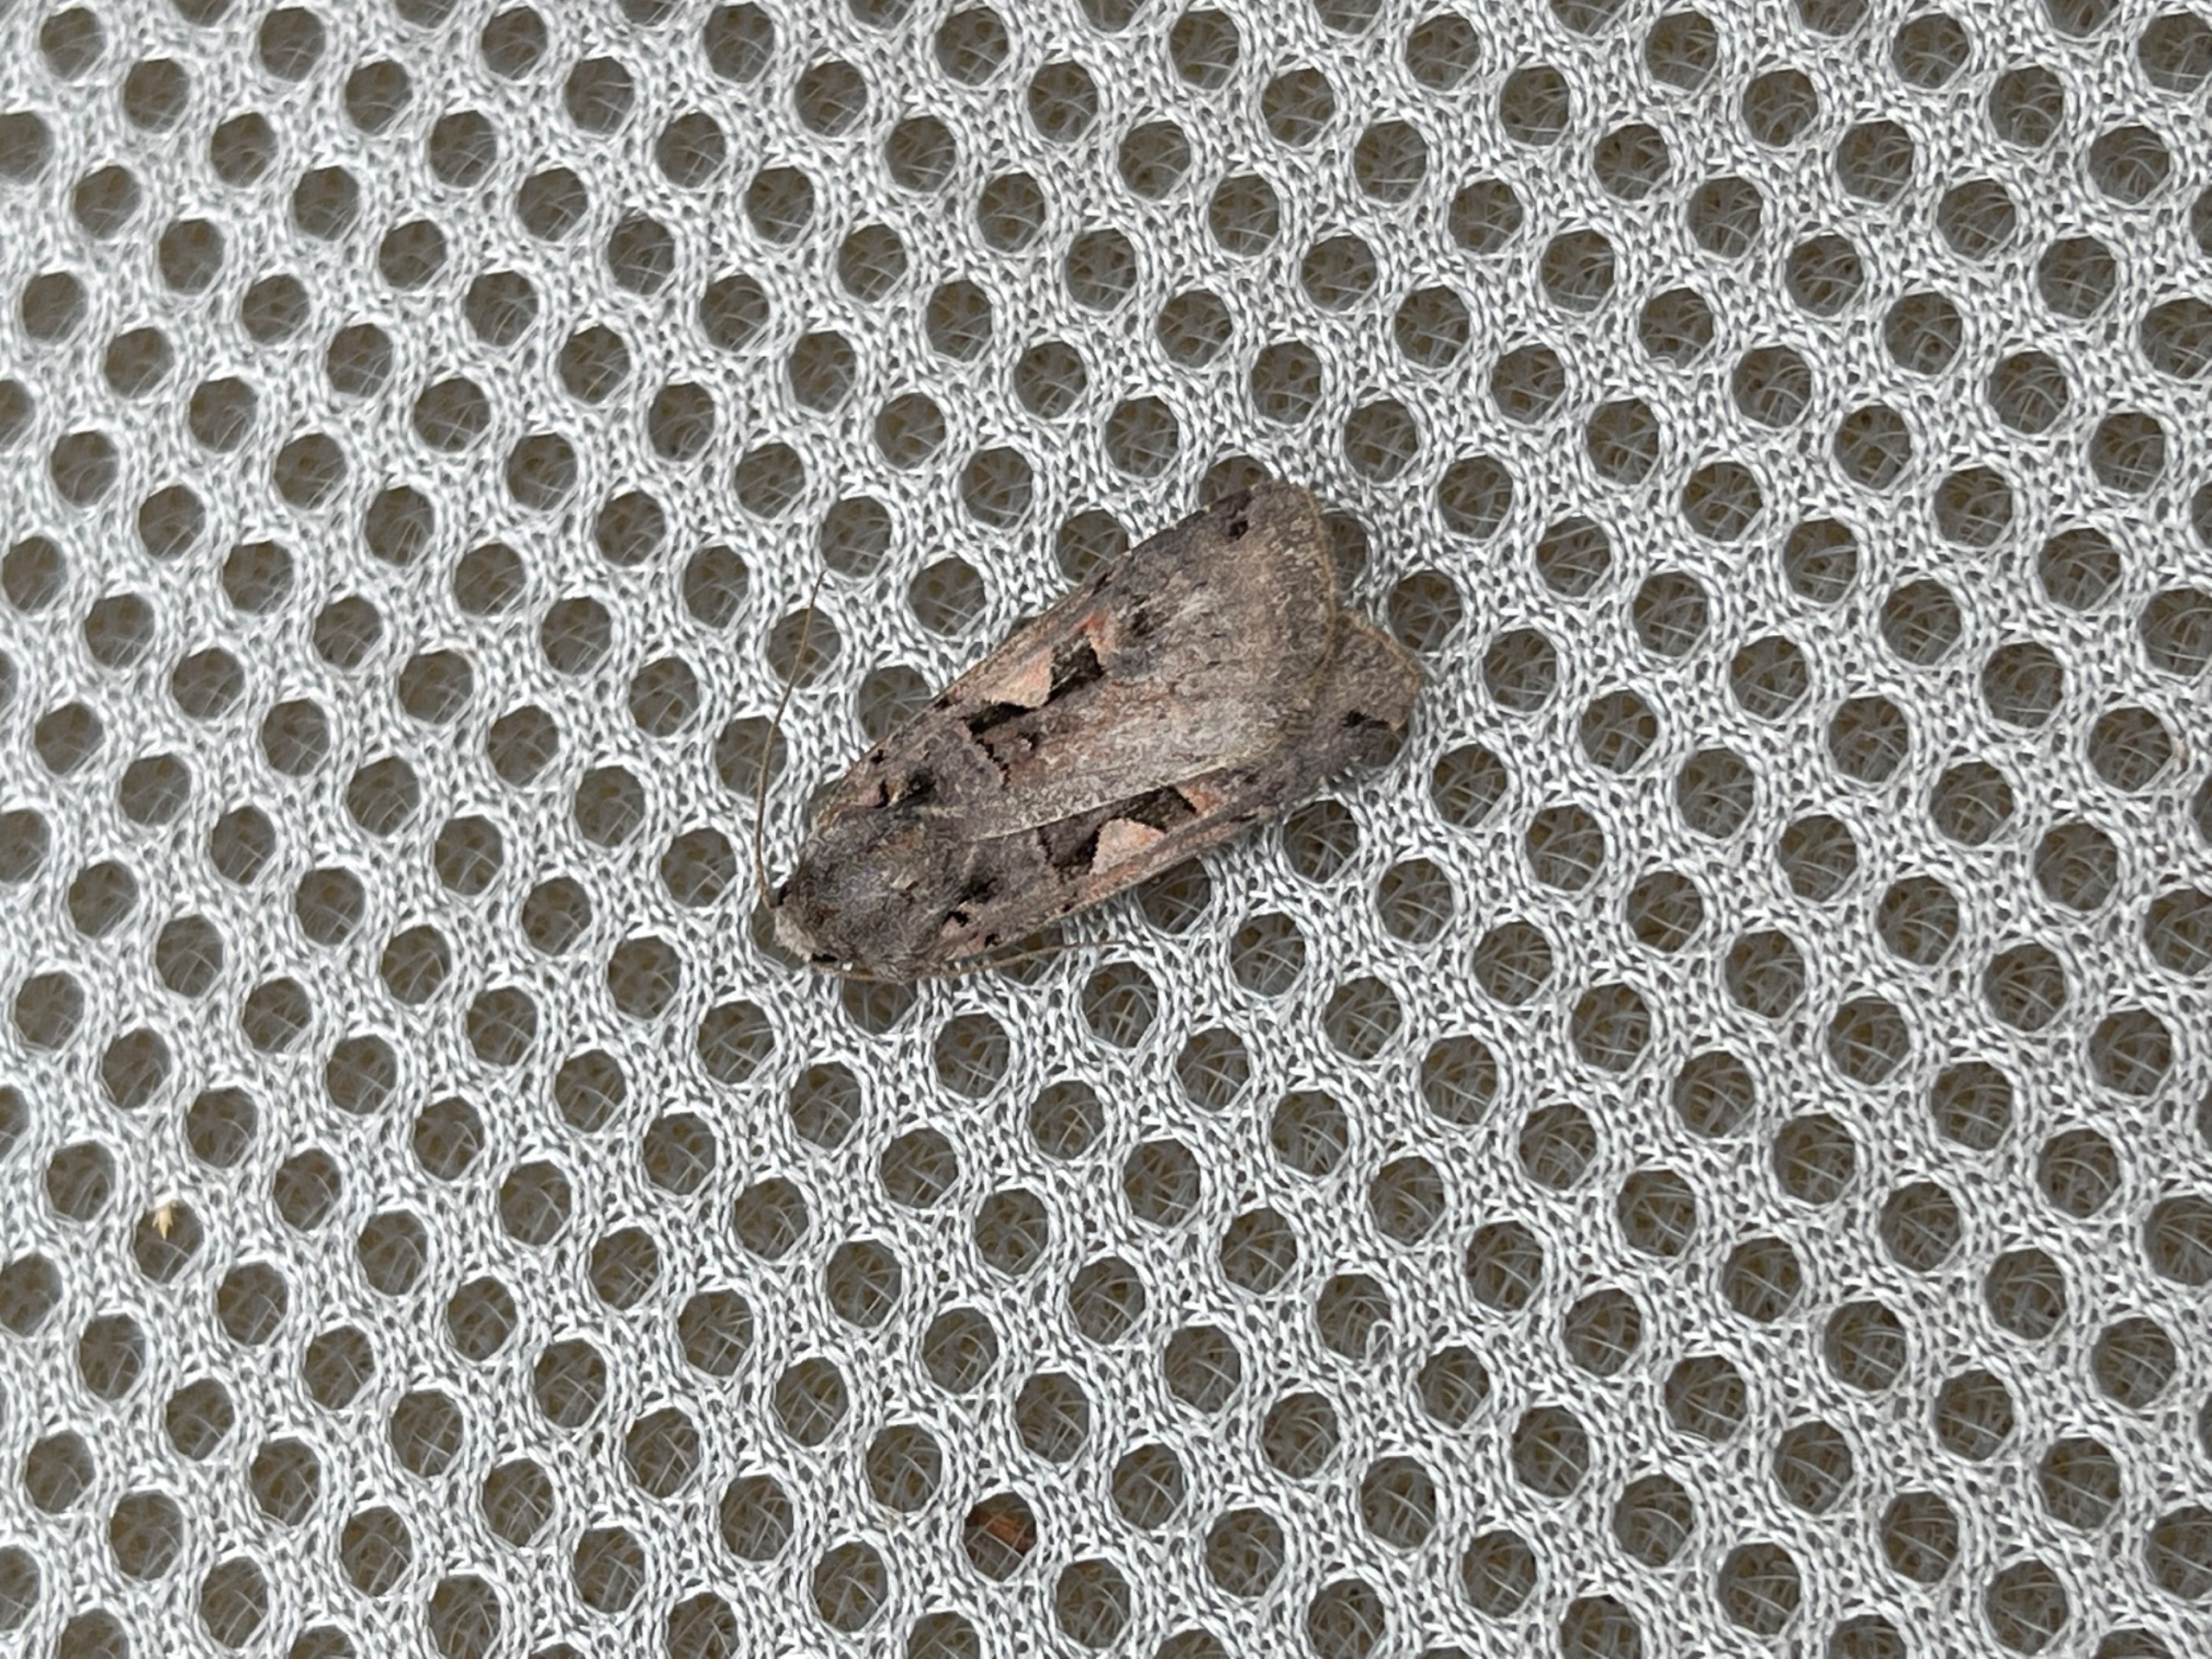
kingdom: Animalia
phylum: Arthropoda
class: Insecta
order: Lepidoptera
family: Noctuidae
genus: Xestia
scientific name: Xestia c-nigrum
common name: Det sorte c
